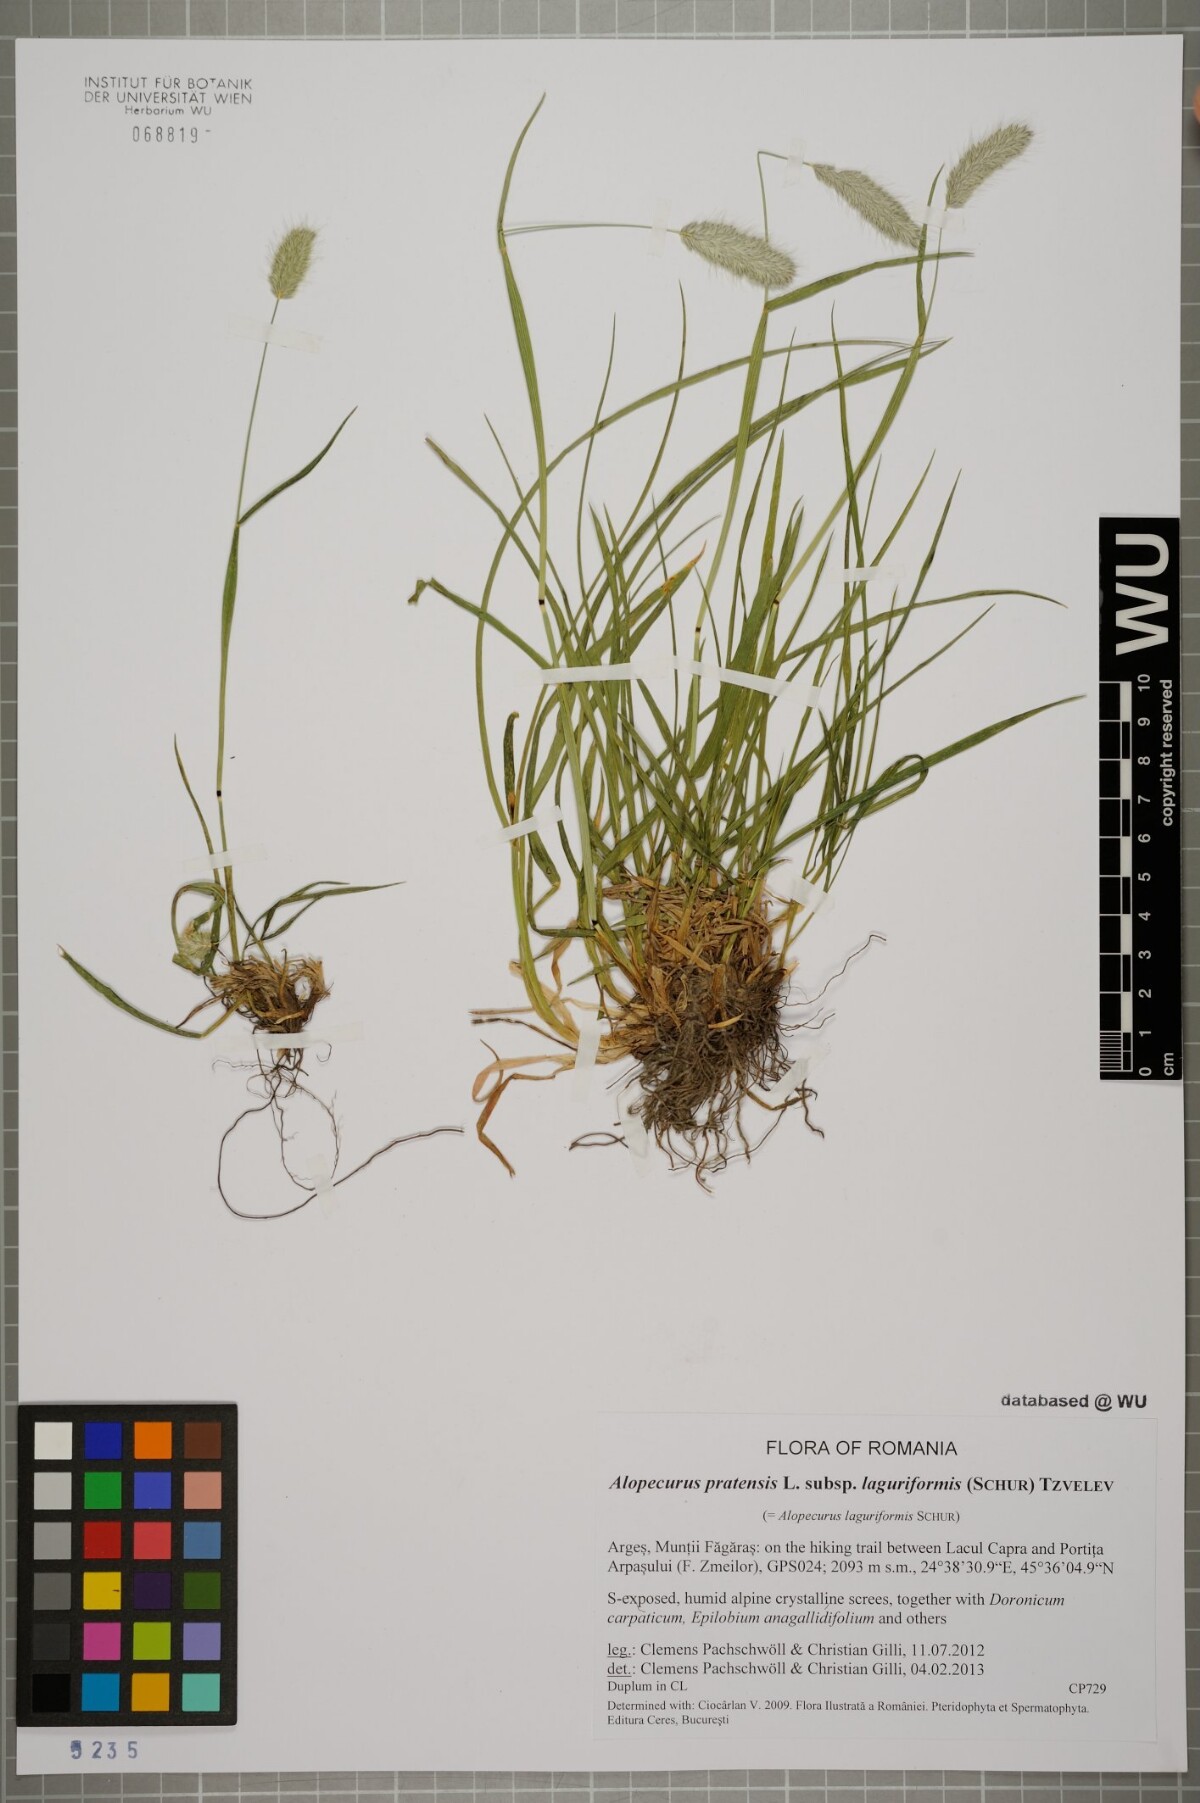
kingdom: Plantae
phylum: Tracheophyta
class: Liliopsida
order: Poales
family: Poaceae
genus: Alopecurus
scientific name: Alopecurus pratensis
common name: Meadow foxtail
